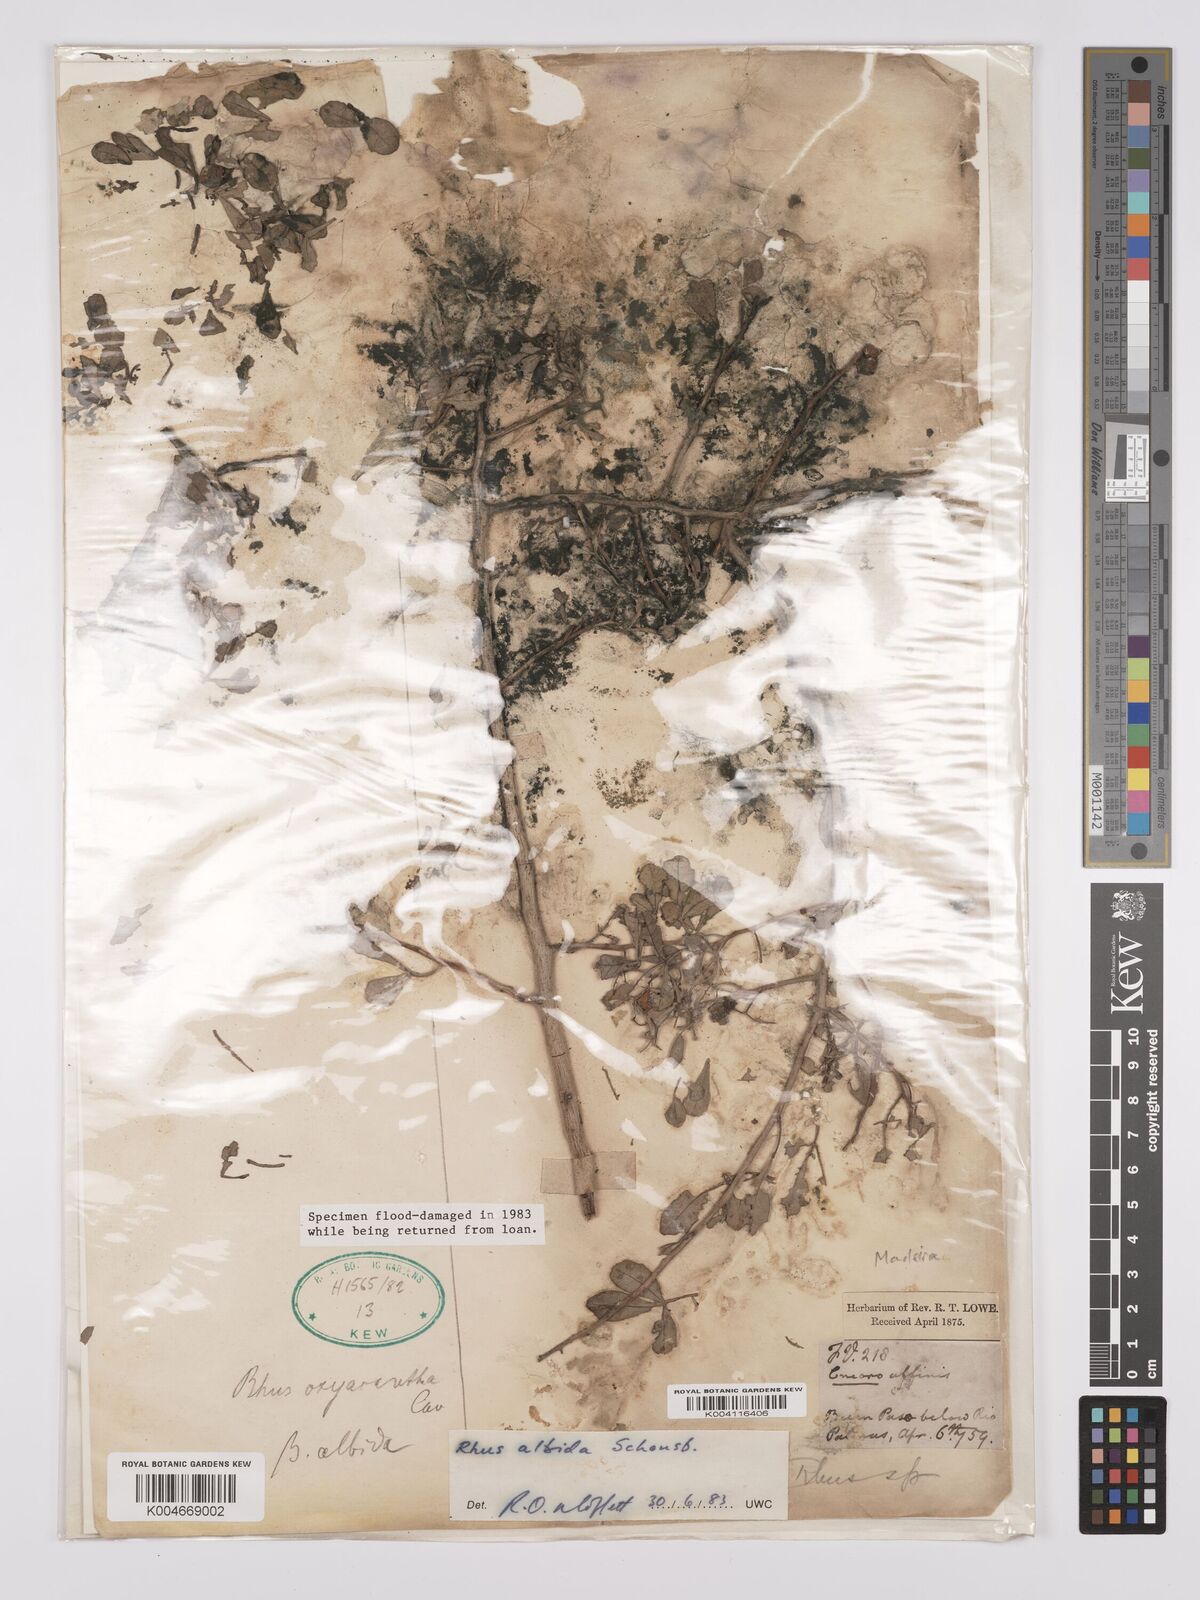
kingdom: Plantae
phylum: Tracheophyta
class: Magnoliopsida
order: Sapindales
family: Anacardiaceae
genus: Rhus
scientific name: Rhus
